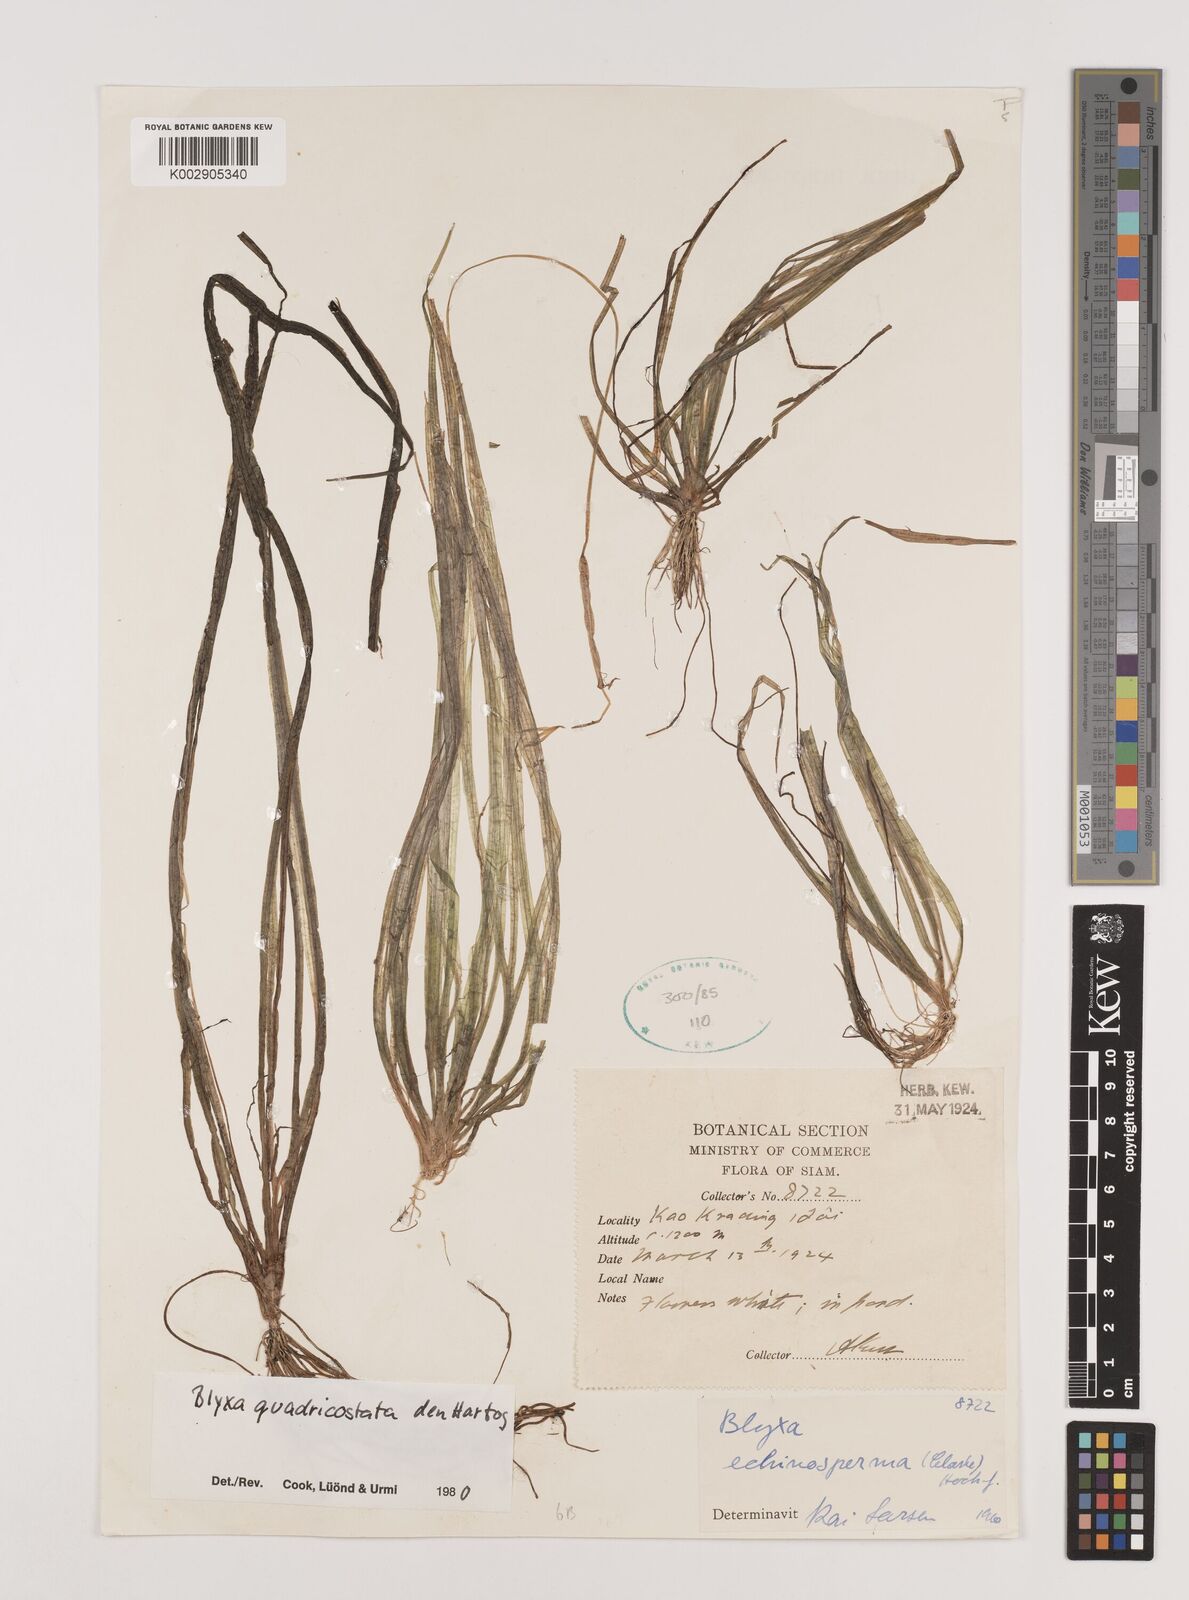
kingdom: Plantae
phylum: Tracheophyta
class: Liliopsida
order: Alismatales
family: Hydrocharitaceae
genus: Blyxa
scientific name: Blyxa quadricostata
